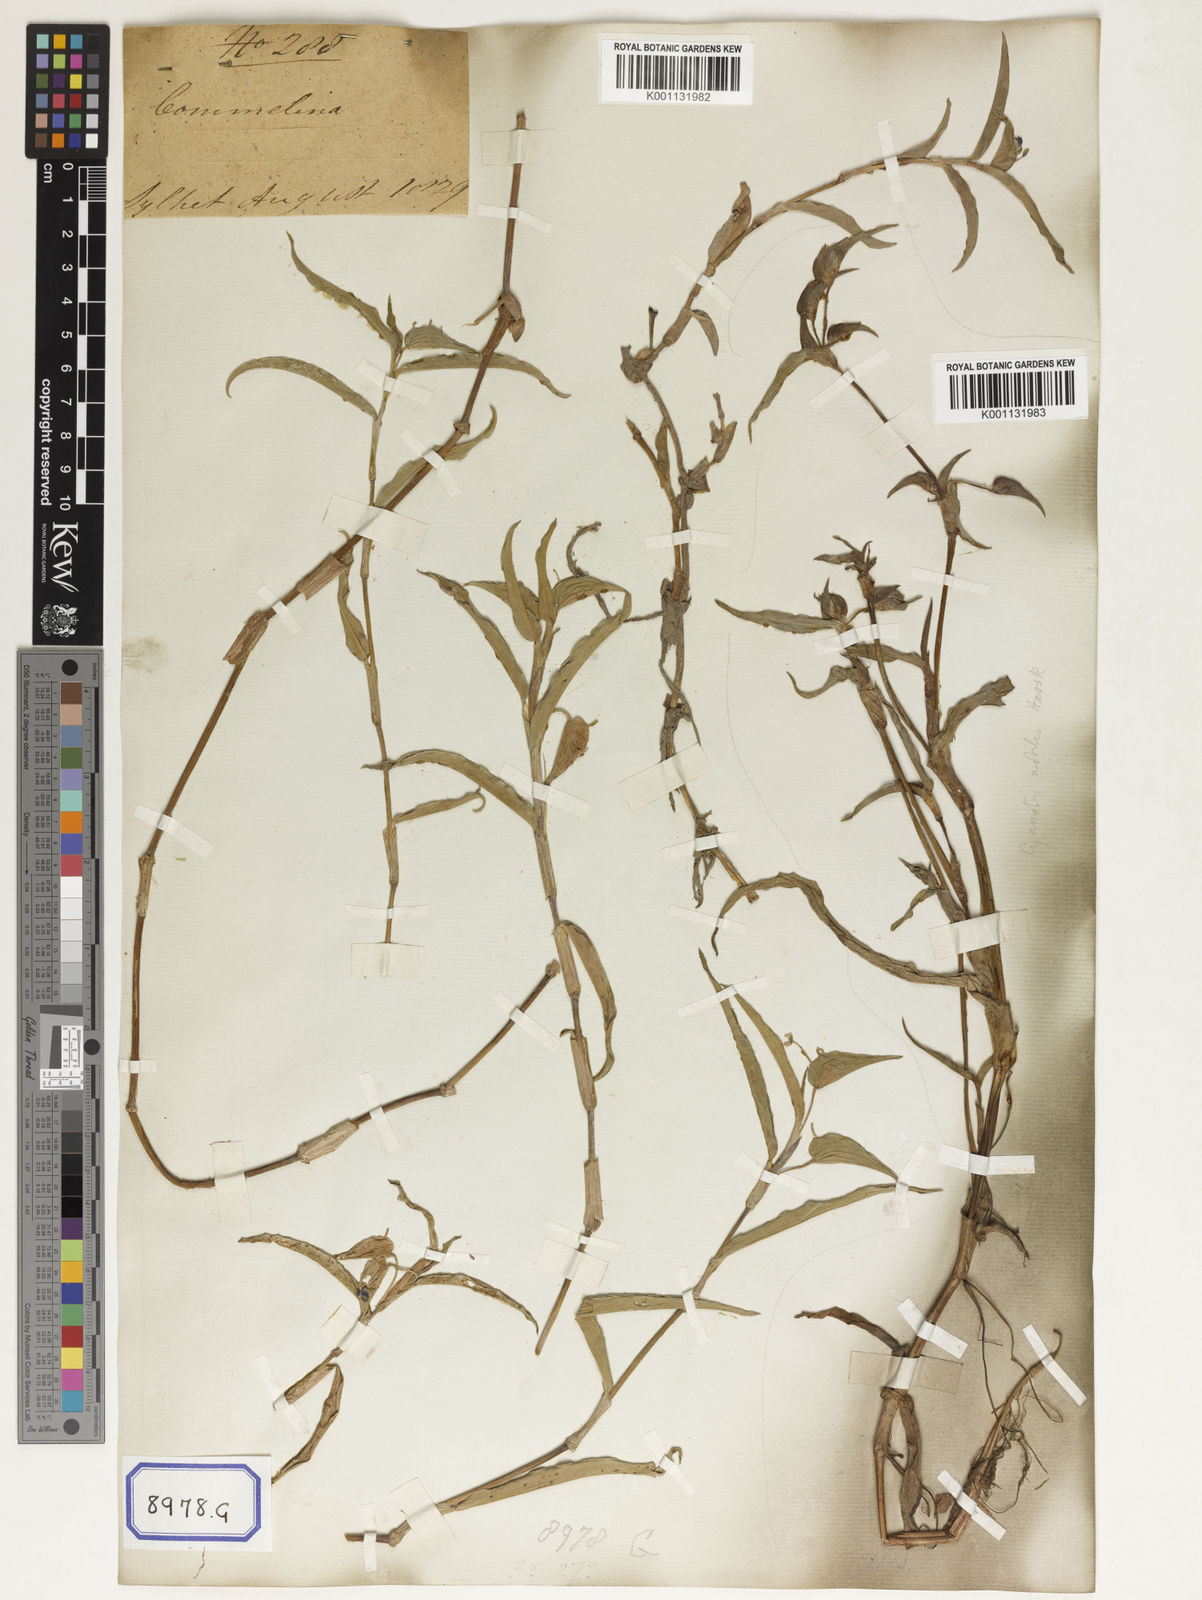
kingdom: Plantae
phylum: Tracheophyta
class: Liliopsida
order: Commelinales
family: Commelinaceae
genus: Commelina
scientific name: Commelina communis
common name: Asiatic dayflower
